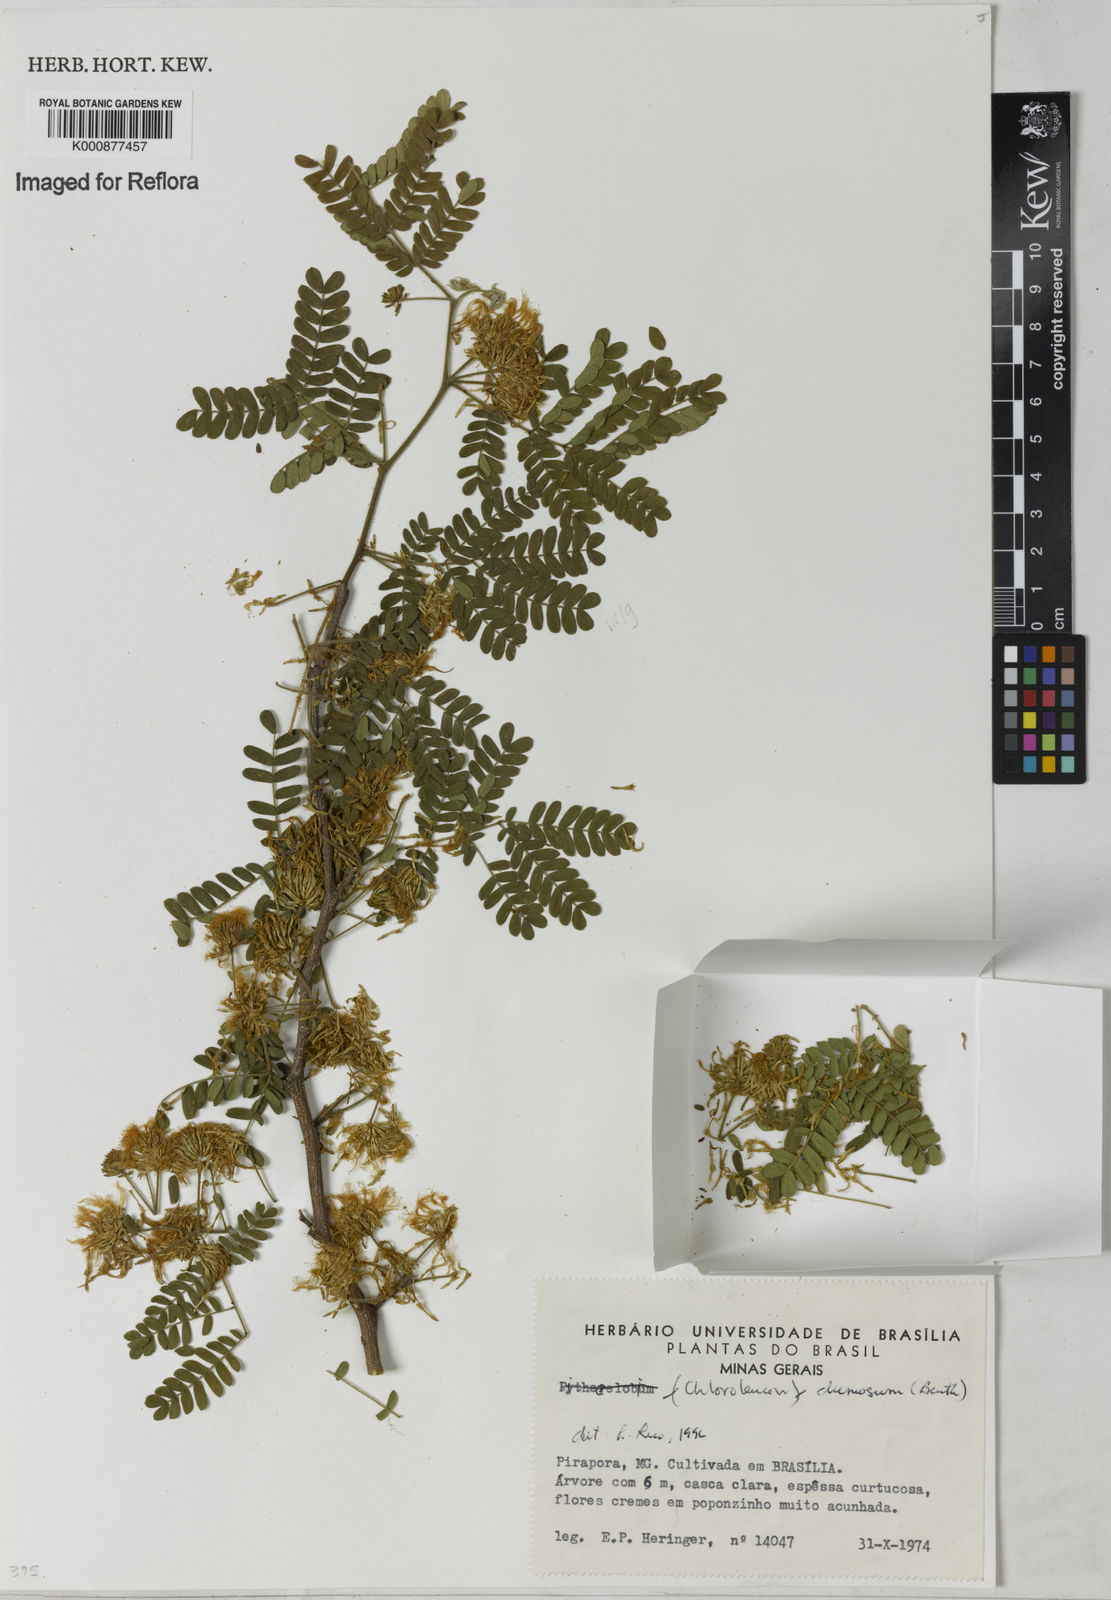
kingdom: Plantae
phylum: Tracheophyta
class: Magnoliopsida
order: Fabales
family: Fabaceae
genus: Chloroleucon
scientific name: Chloroleucon tenuiflorum
